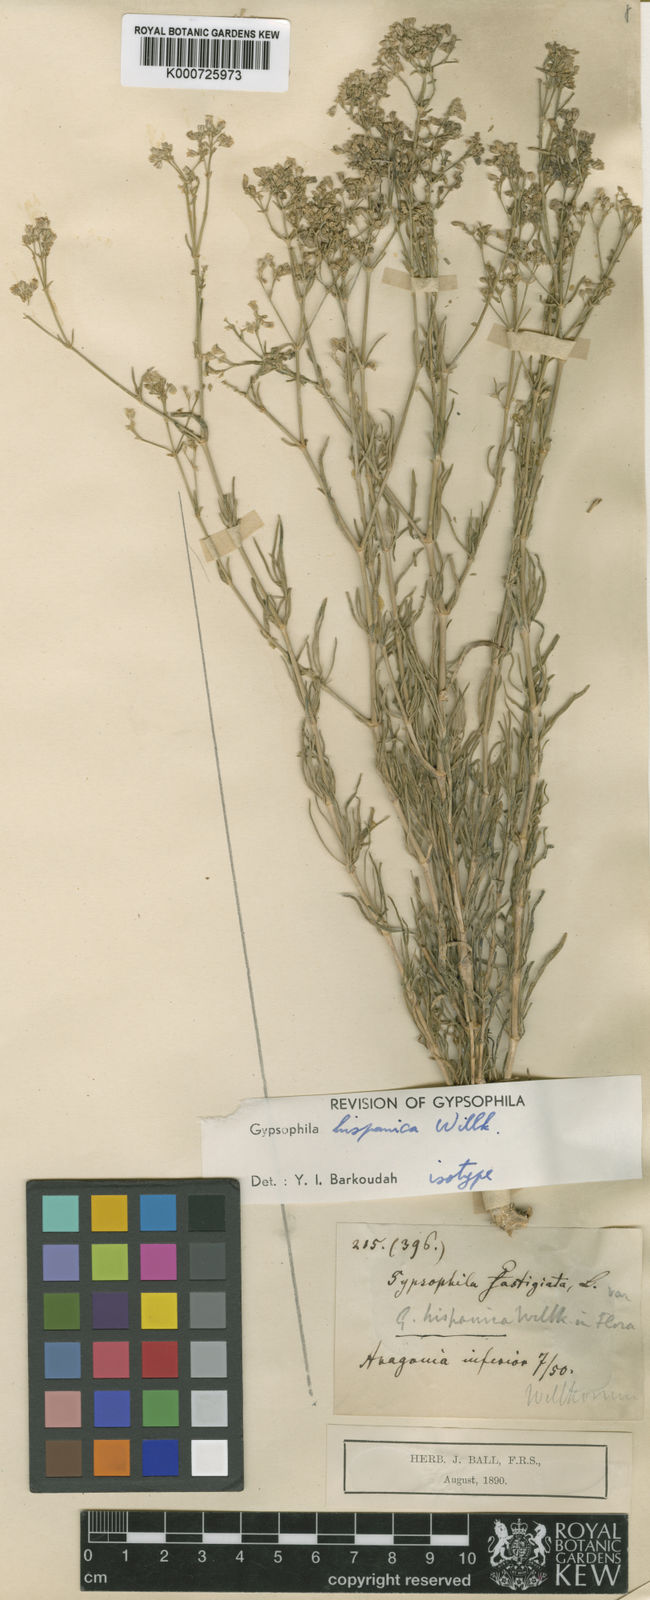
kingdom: Plantae
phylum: Tracheophyta
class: Magnoliopsida
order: Caryophyllales
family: Caryophyllaceae
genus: Gypsophila
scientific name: Gypsophila struthium
